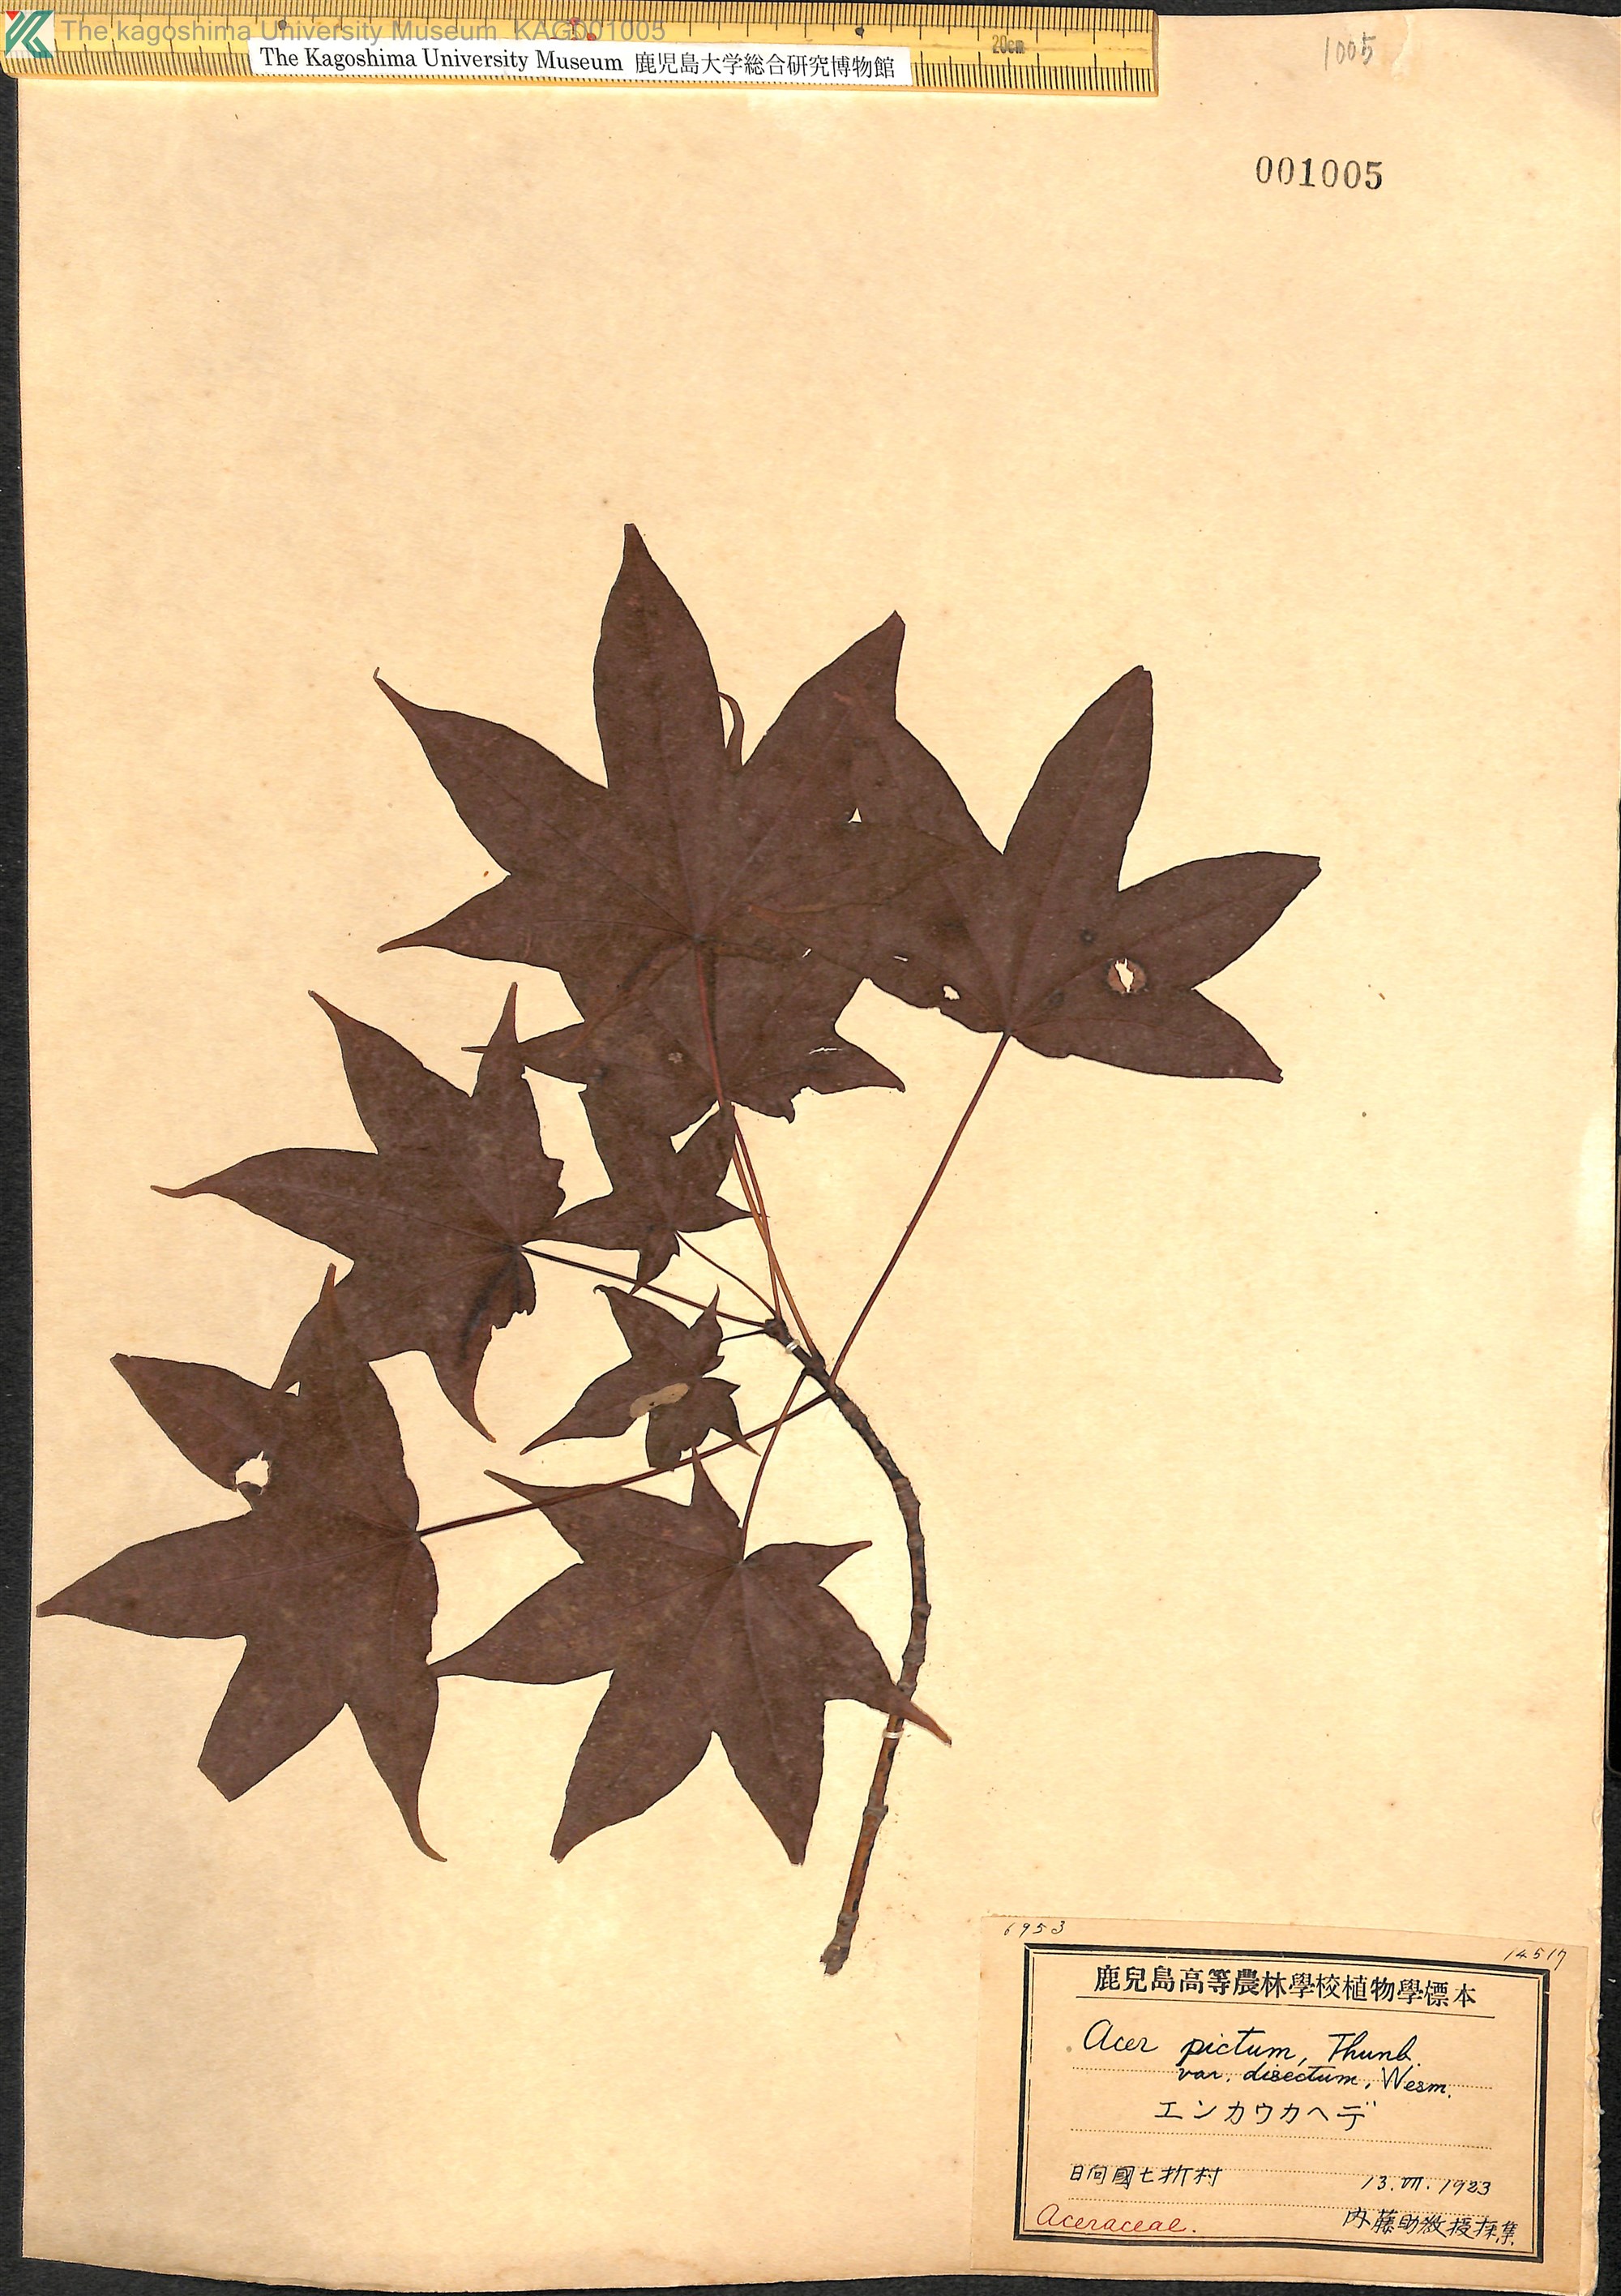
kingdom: Plantae
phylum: Tracheophyta
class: Magnoliopsida
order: Sapindales
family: Sapindaceae
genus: Acer
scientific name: Acer pictum
